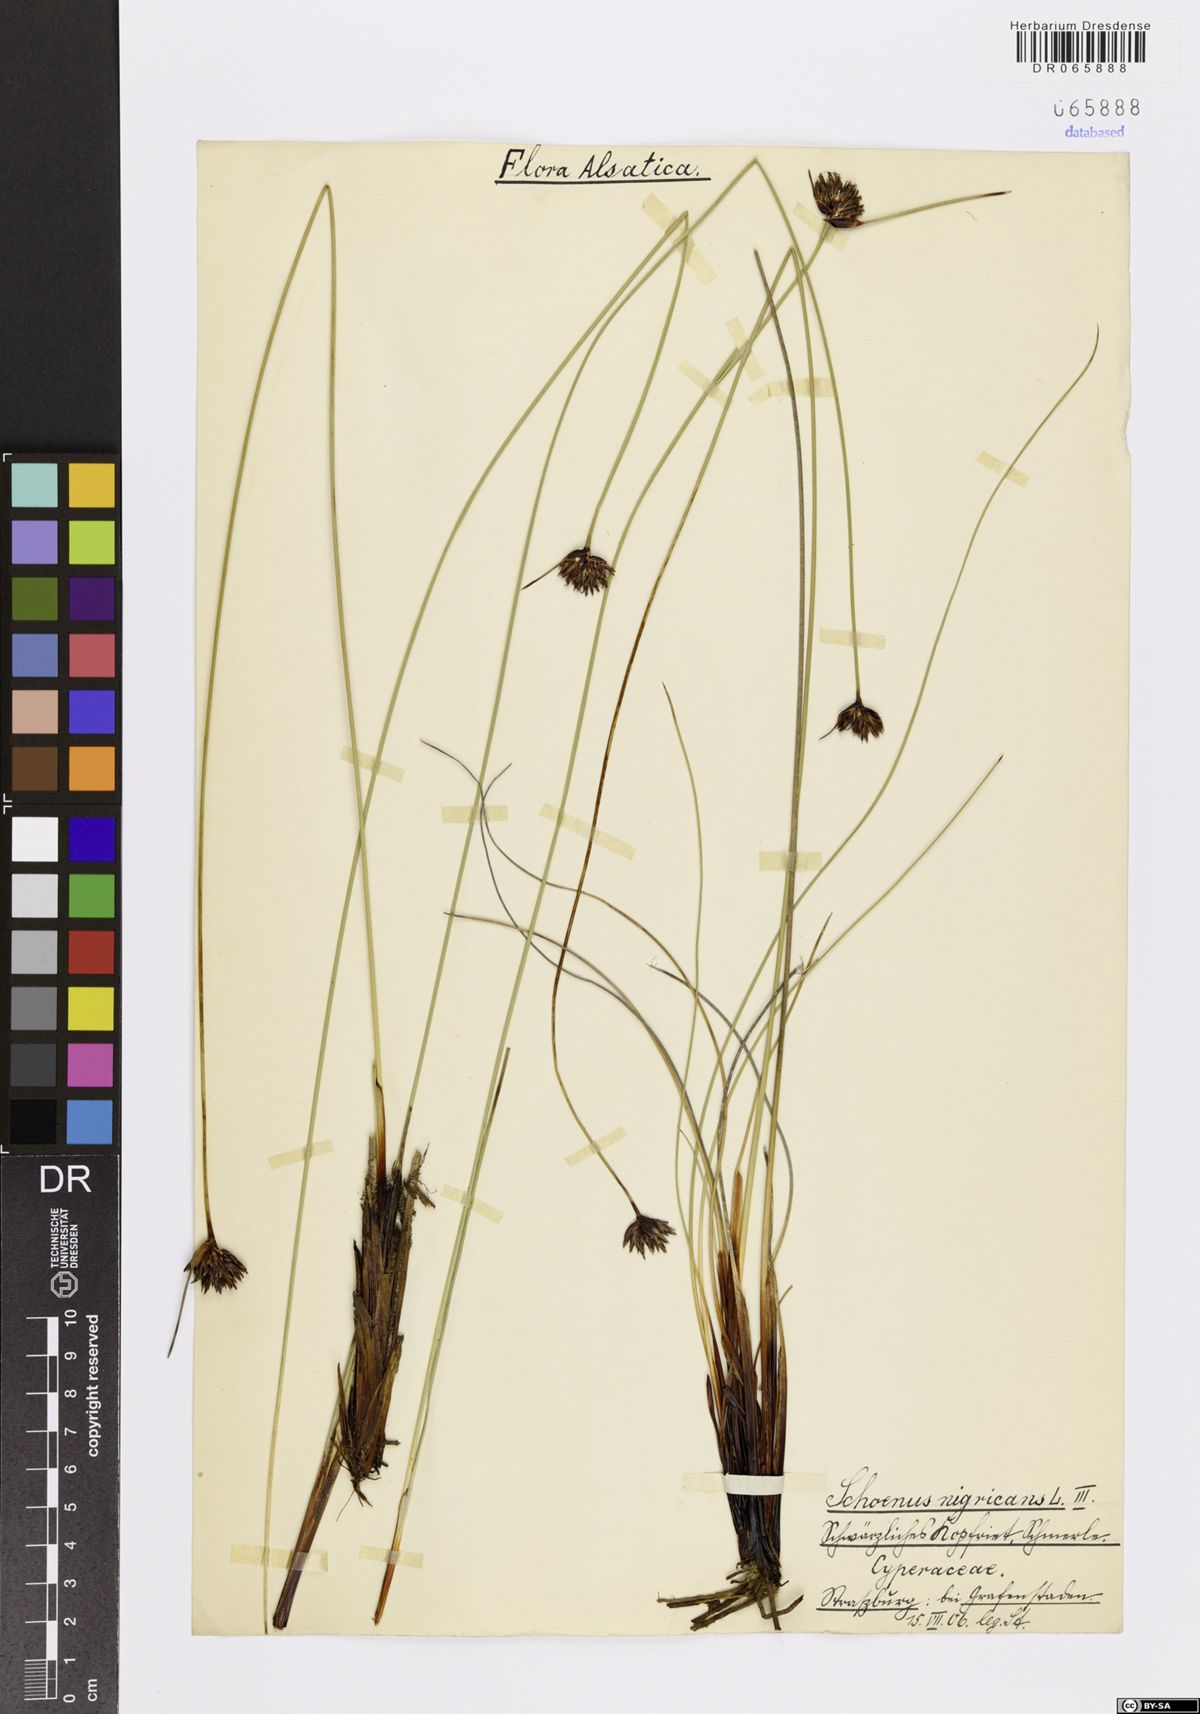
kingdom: Plantae
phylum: Tracheophyta
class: Liliopsida
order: Poales
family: Cyperaceae
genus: Schoenus
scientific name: Schoenus nigricans
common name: Black bog-rush
